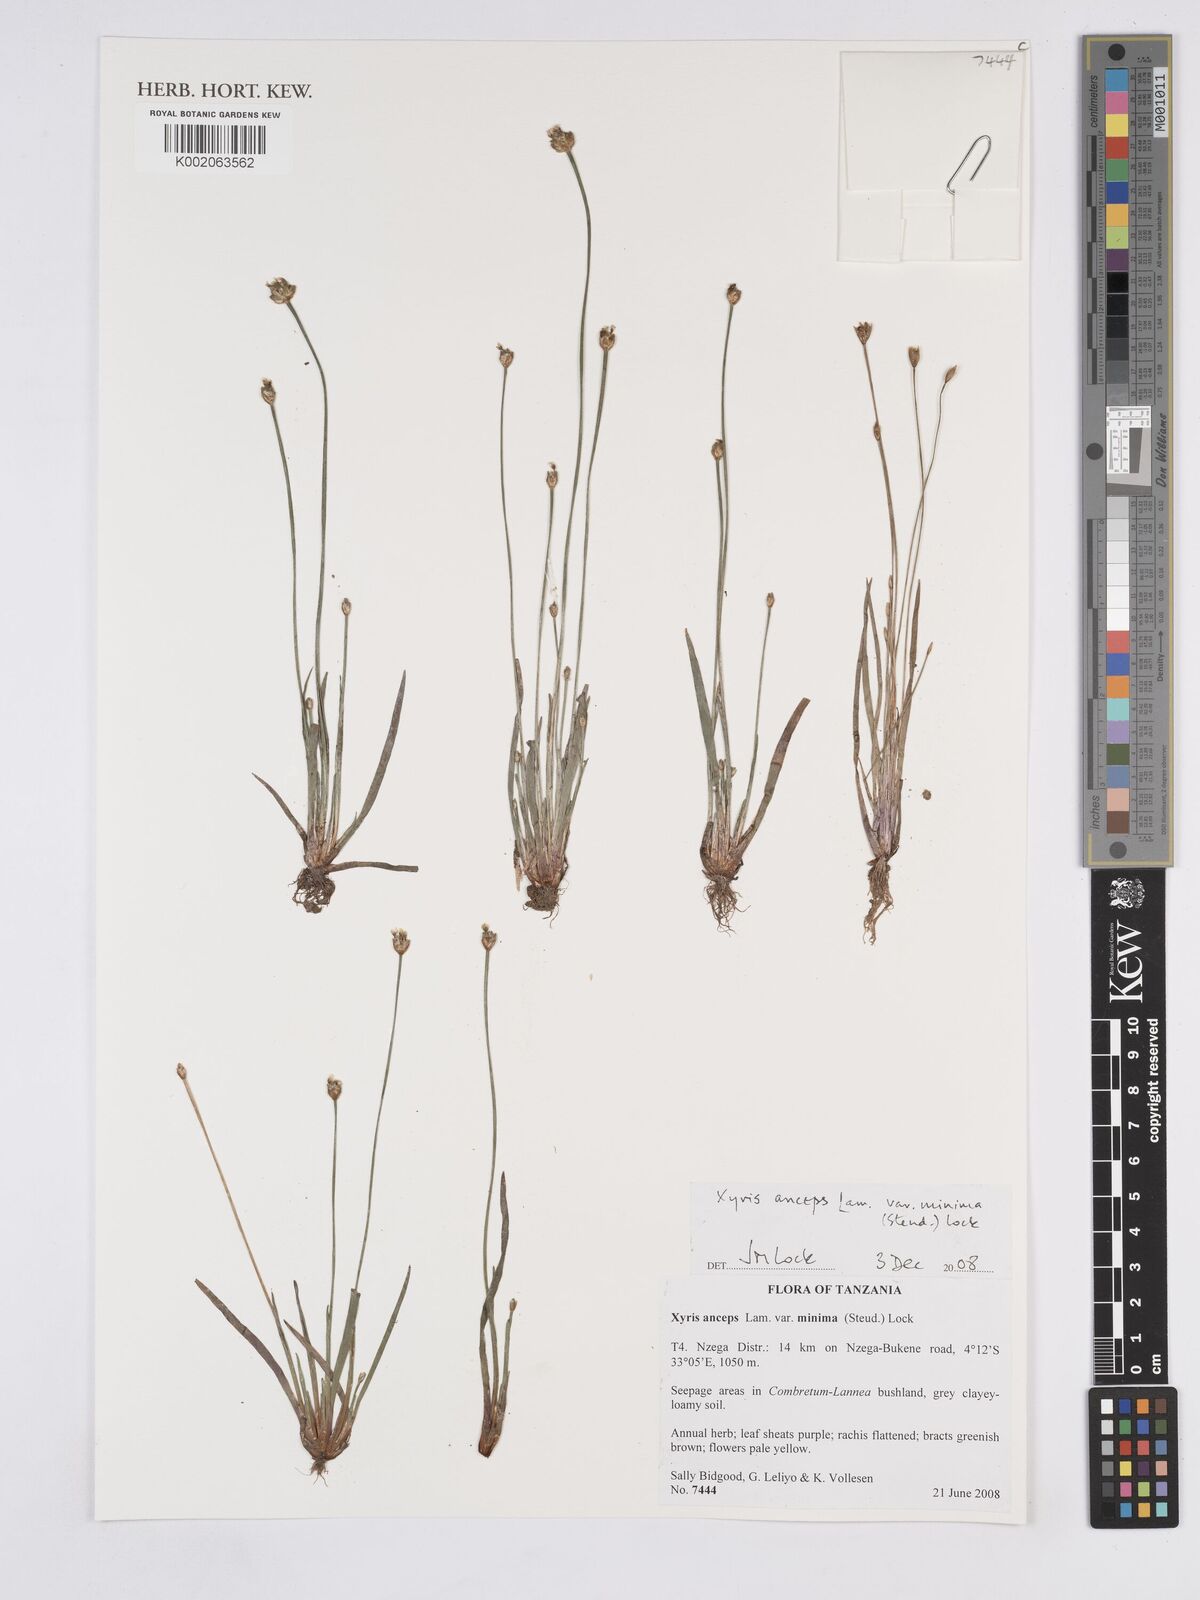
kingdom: Plantae
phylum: Tracheophyta
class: Liliopsida
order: Poales
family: Xyridaceae
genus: Xyris
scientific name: Xyris anceps
